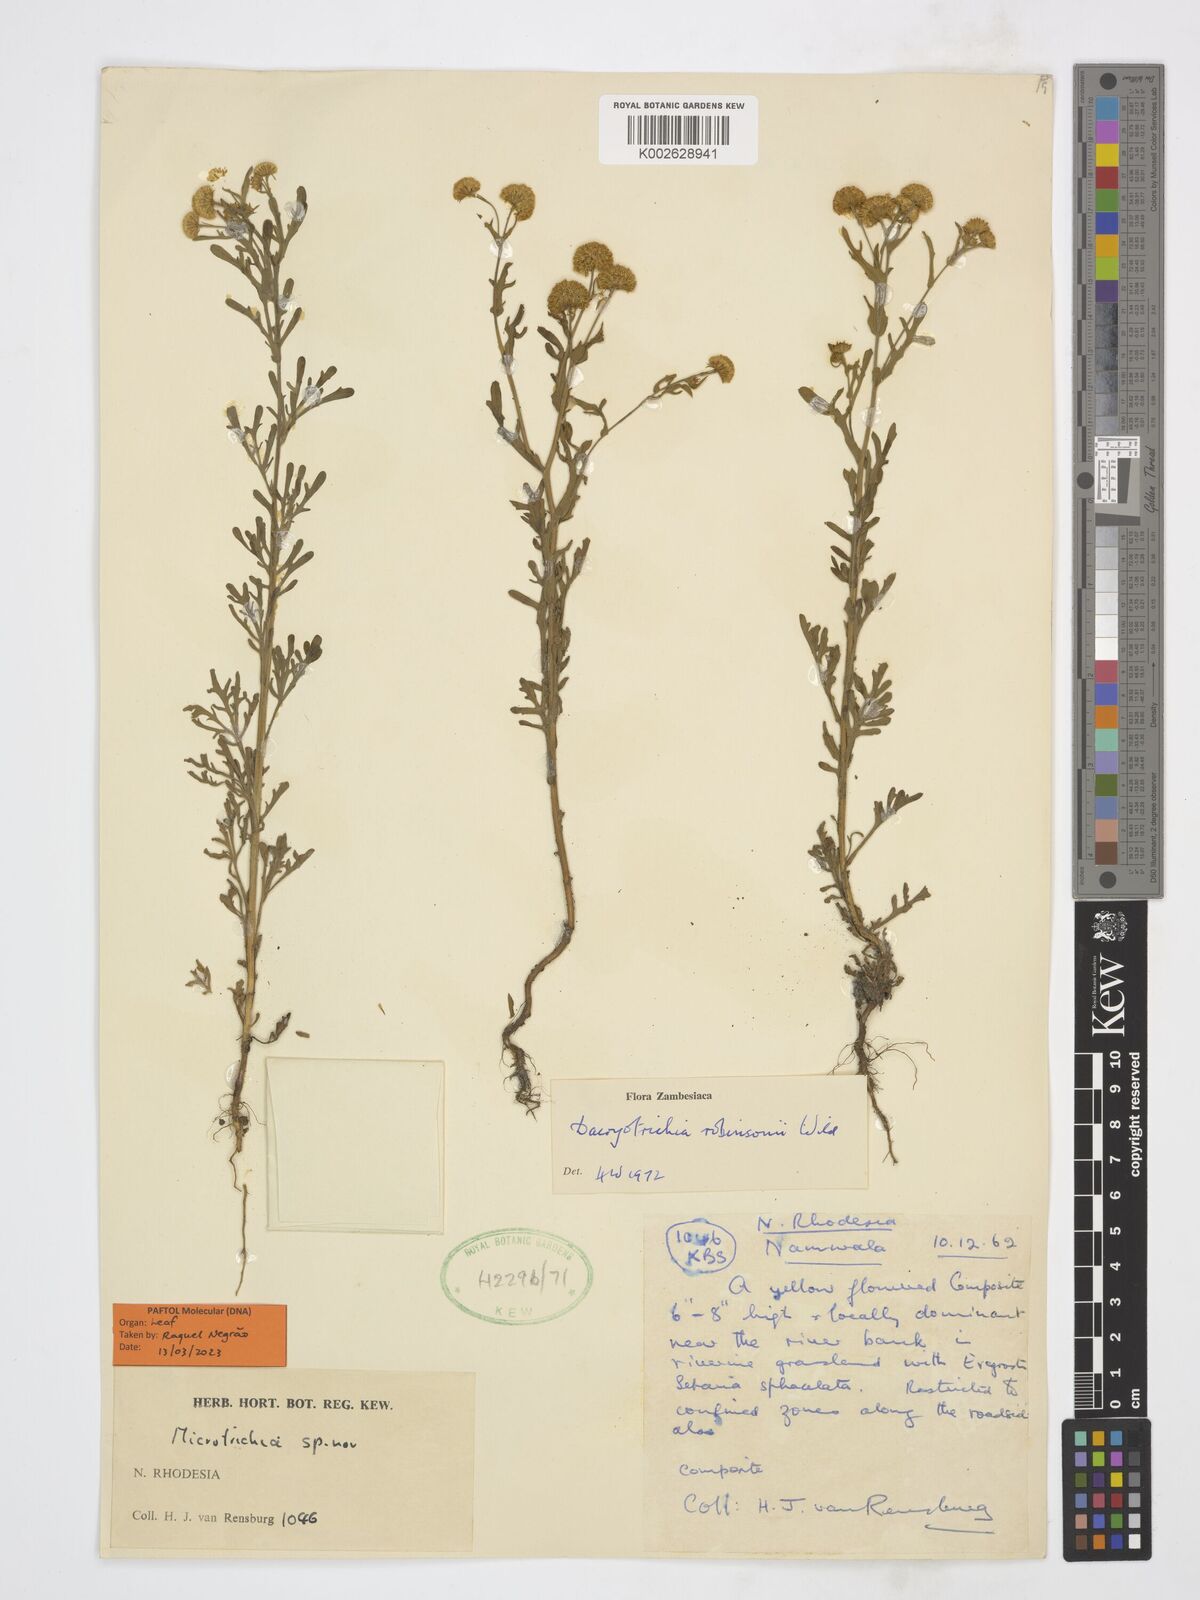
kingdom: Plantae
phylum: Tracheophyta
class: Magnoliopsida
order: Asterales
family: Asteraceae
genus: Dacryotrichia
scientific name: Dacryotrichia robinsonii
